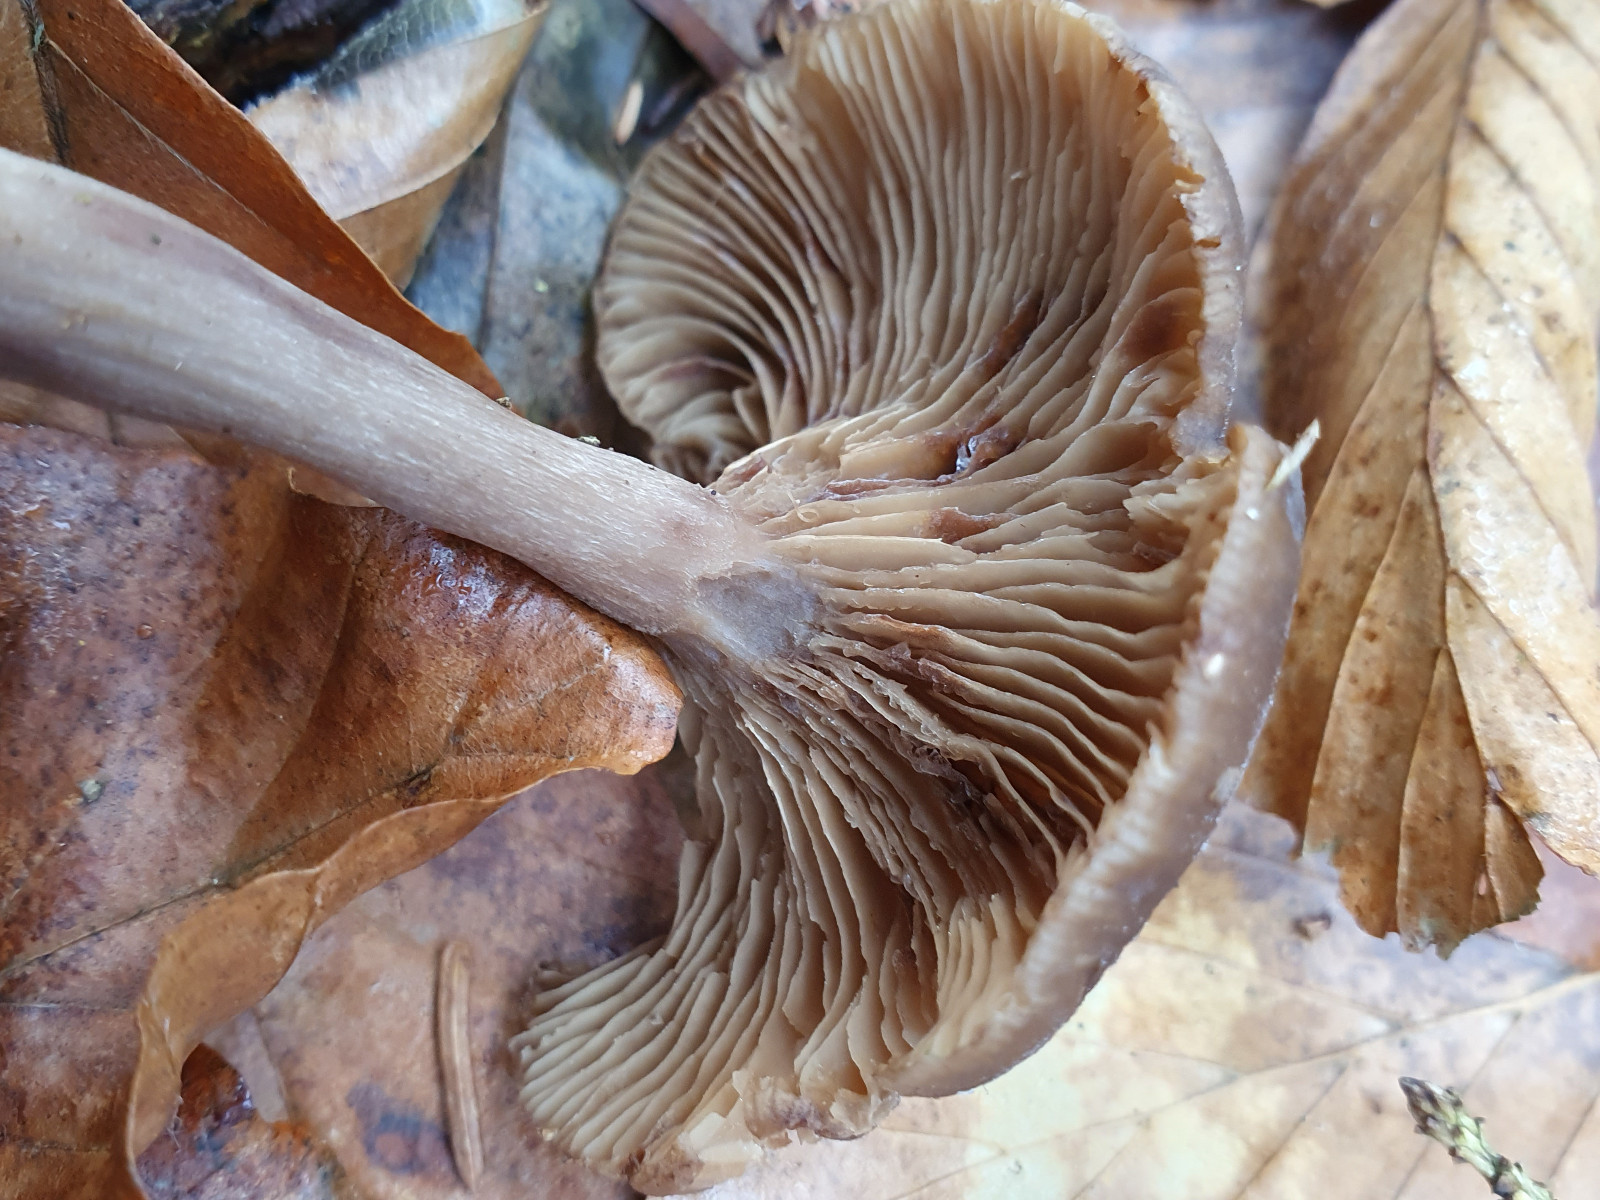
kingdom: Fungi
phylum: Basidiomycota
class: Agaricomycetes
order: Agaricales
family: Pseudoclitocybaceae
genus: Pseudoclitocybe
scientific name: Pseudoclitocybe cyathiformis
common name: almindelig bægertragthat
